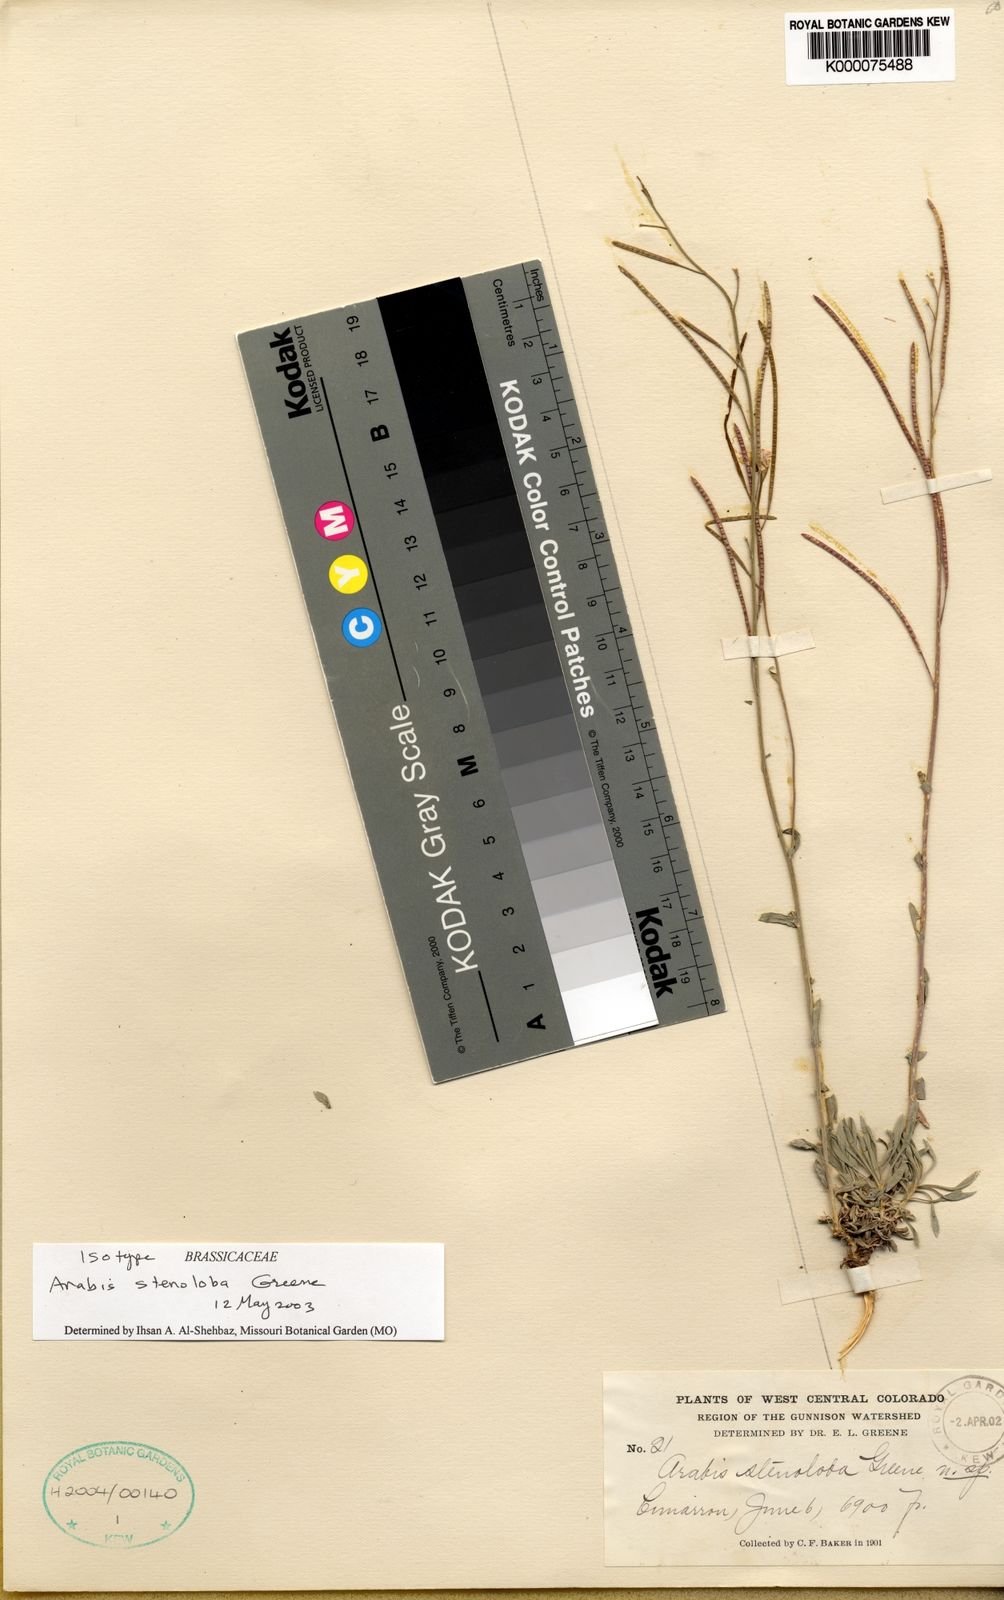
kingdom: Plantae
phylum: Tracheophyta
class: Magnoliopsida
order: Brassicales
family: Brassicaceae
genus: Boechera
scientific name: Boechera crandallii
